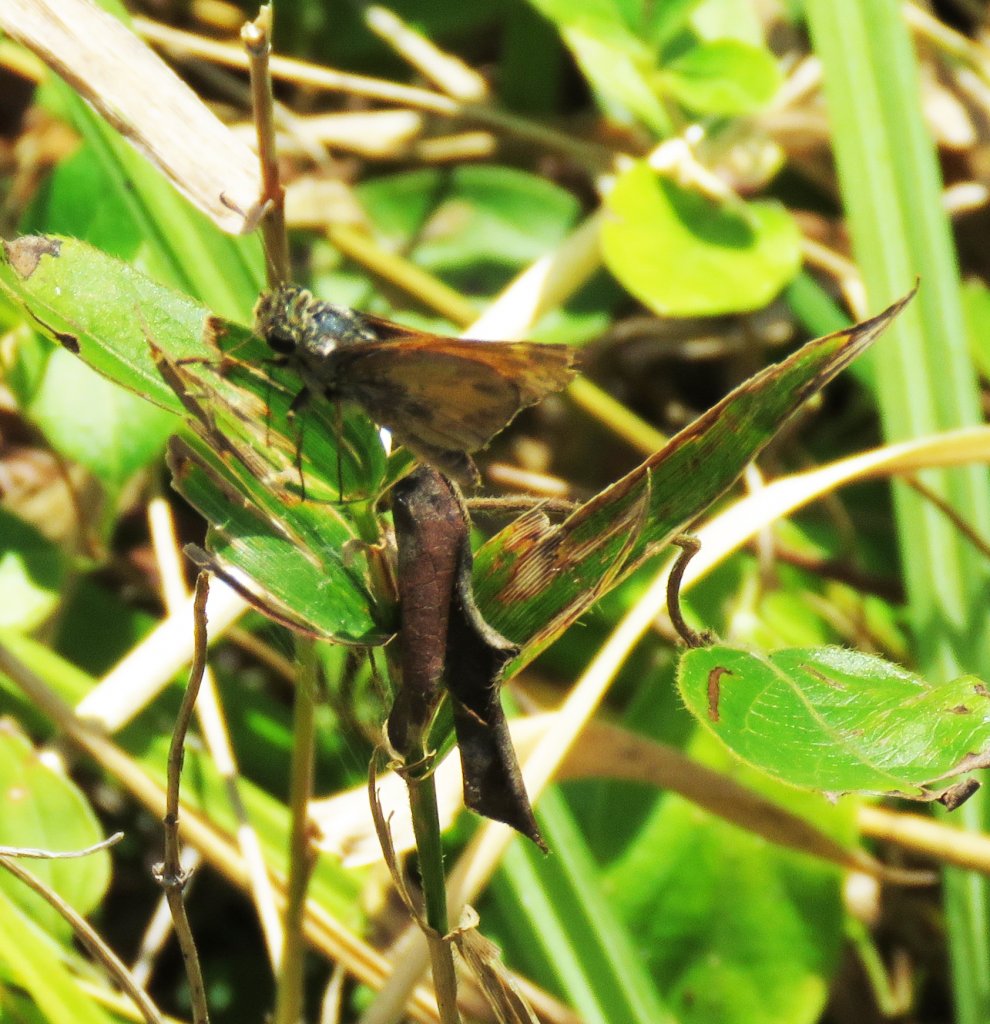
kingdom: Animalia
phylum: Arthropoda
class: Insecta
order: Lepidoptera
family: Hesperiidae
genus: Atalopedes
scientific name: Atalopedes campestris
